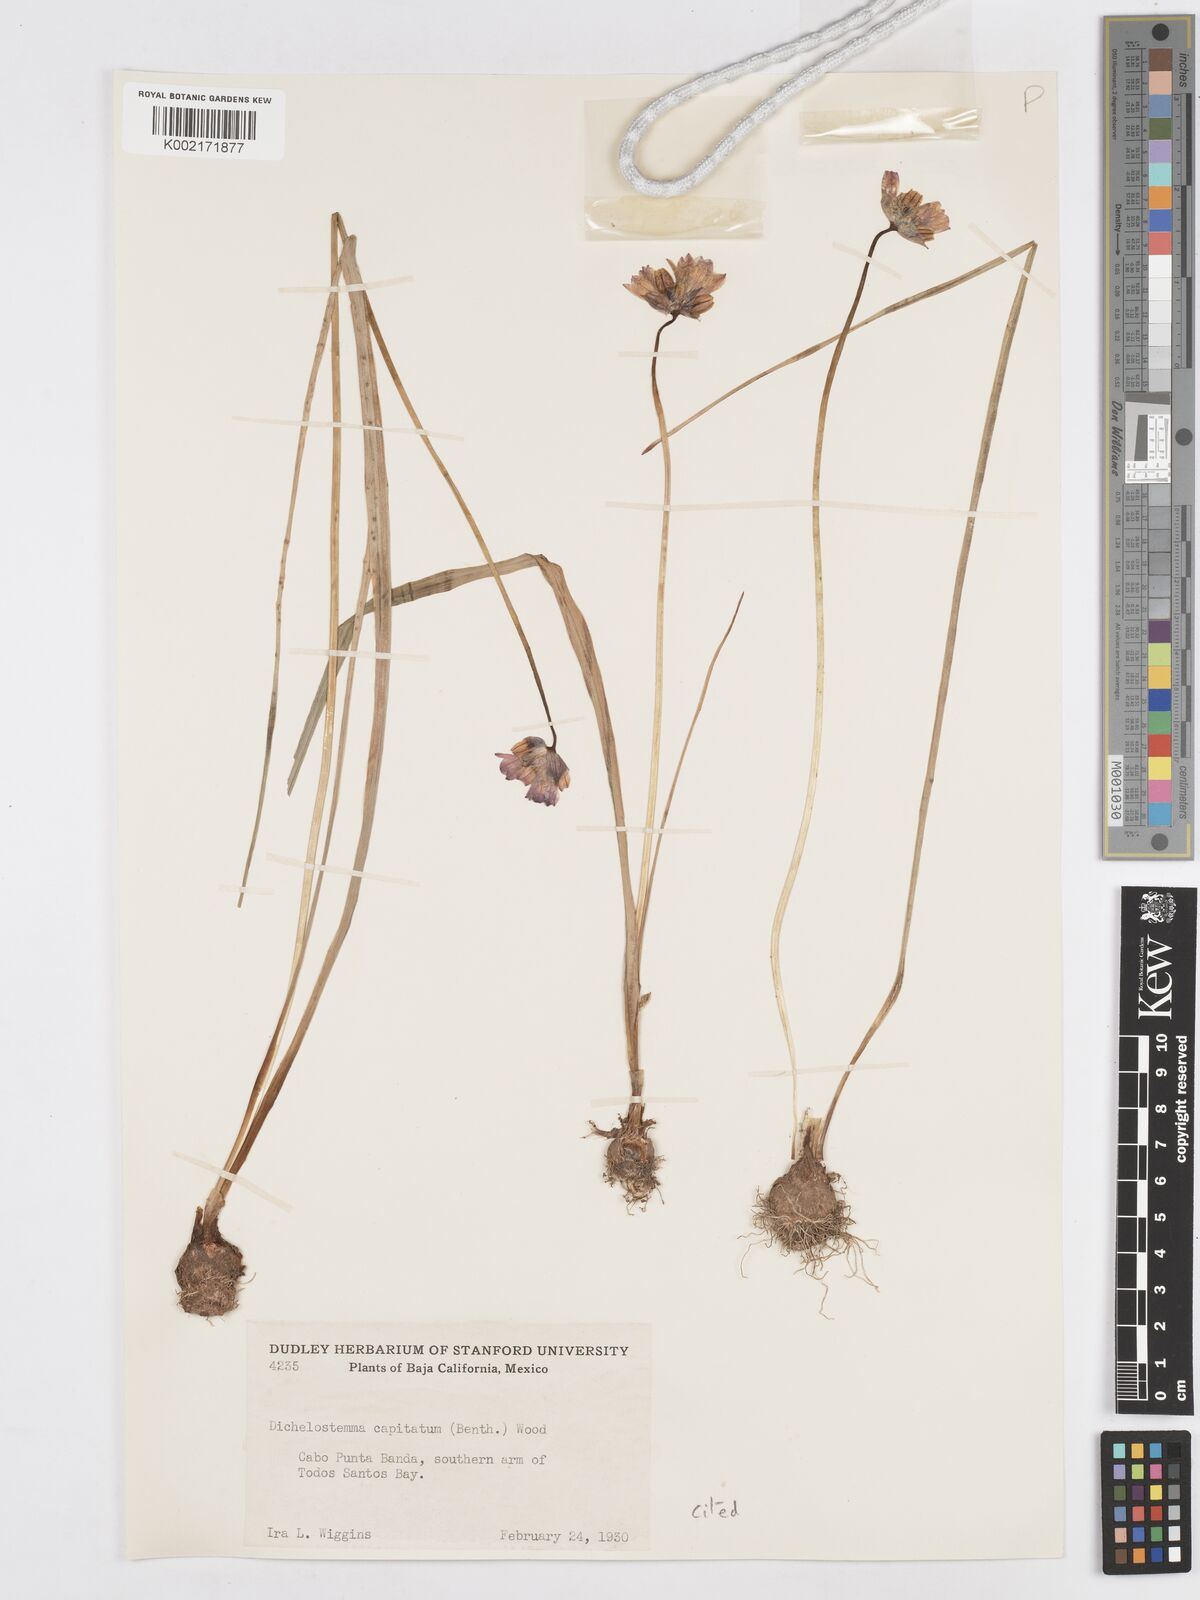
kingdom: Plantae
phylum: Tracheophyta
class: Liliopsida
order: Asparagales
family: Asparagaceae
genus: Dichelostemma
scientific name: Dichelostemma congestum
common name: Fork-tooth ookow
